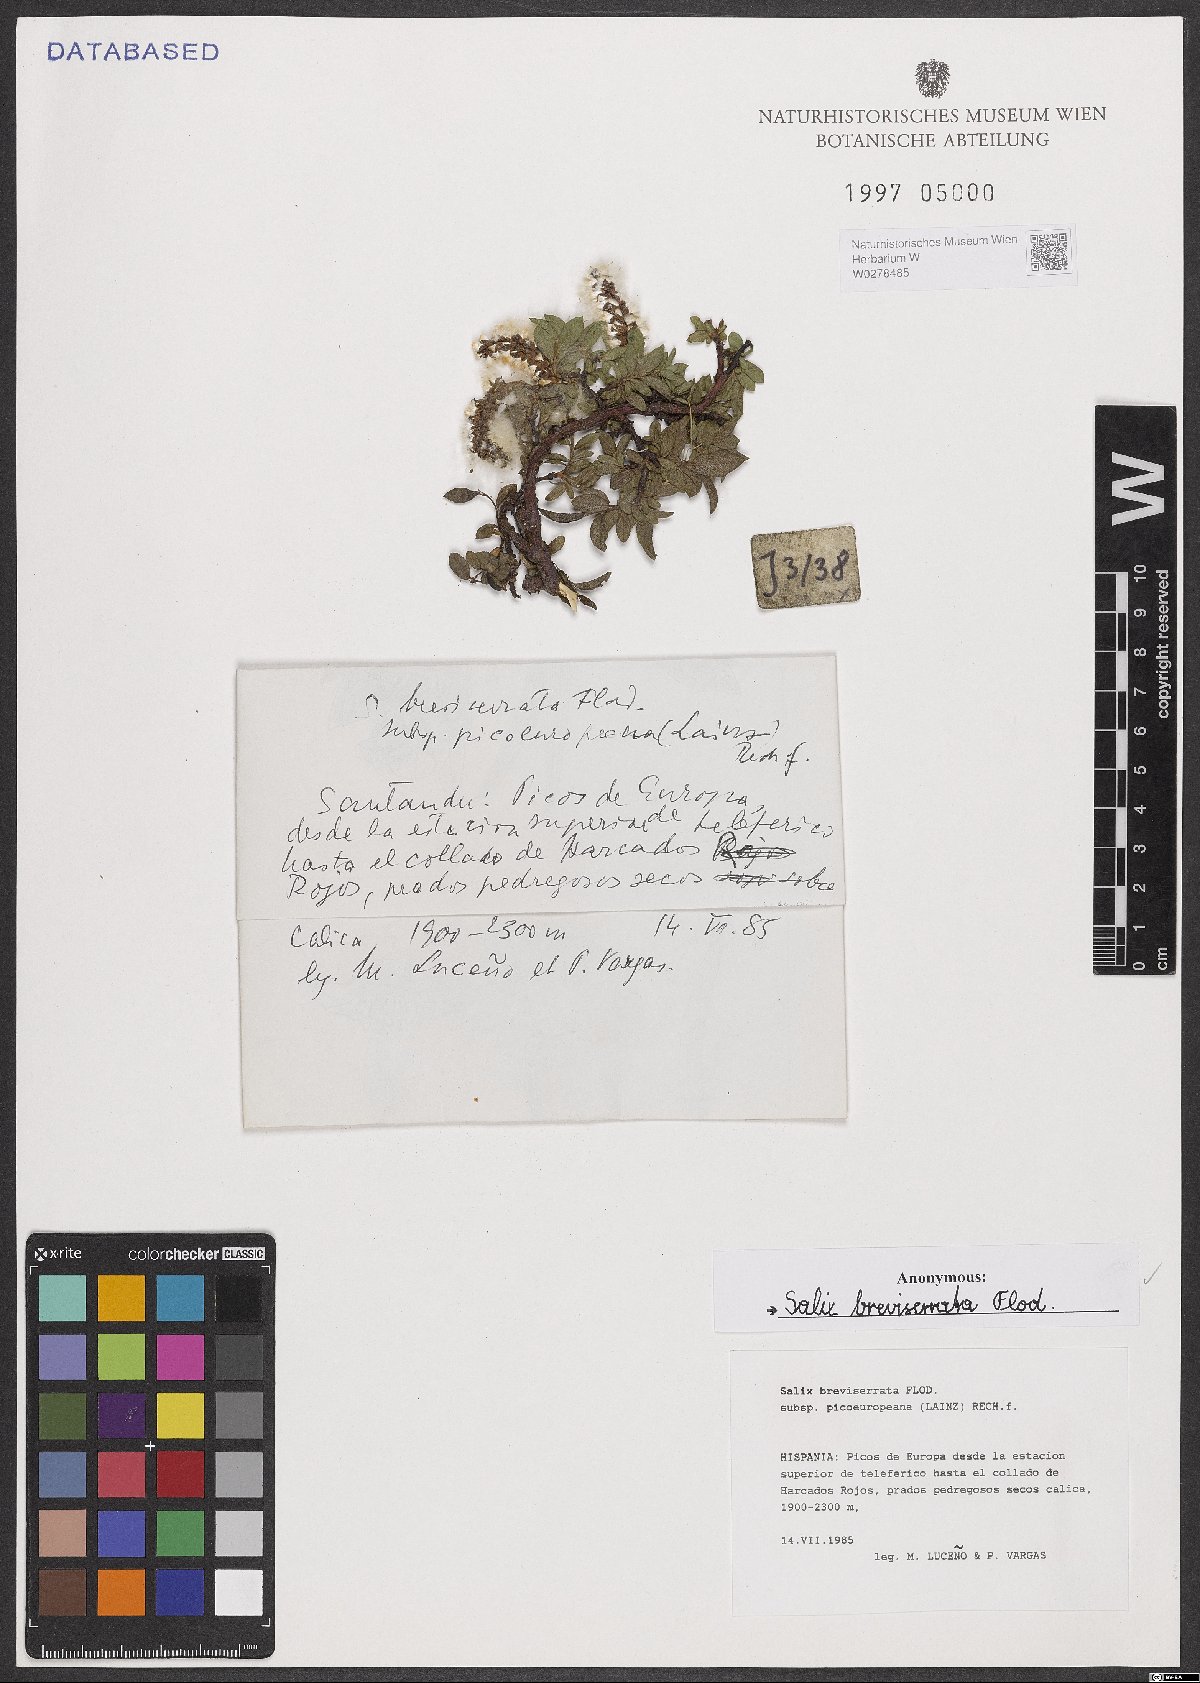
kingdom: Plantae
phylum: Tracheophyta
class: Magnoliopsida
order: Malpighiales
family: Salicaceae
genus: Salix
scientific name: Salix breviserrata
